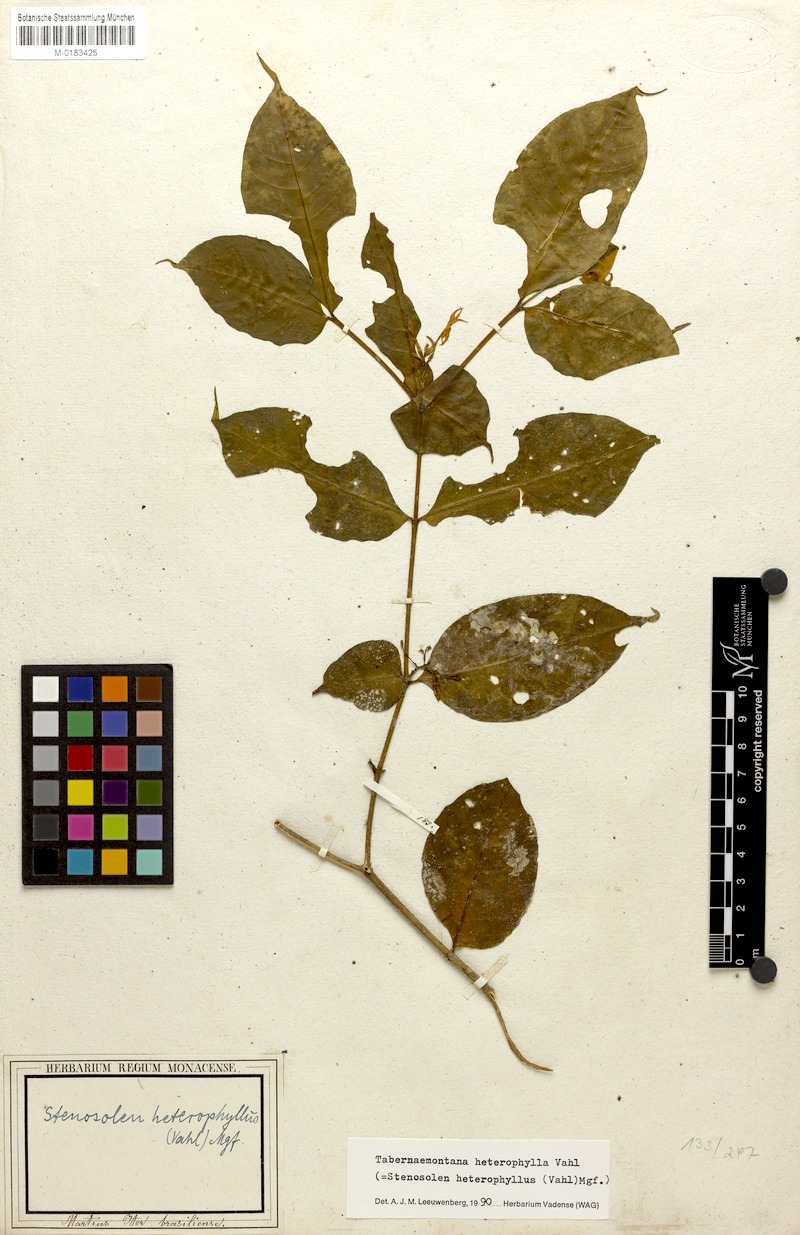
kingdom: Plantae
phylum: Tracheophyta
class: Magnoliopsida
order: Gentianales
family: Apocynaceae
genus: Tabernaemontana
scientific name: Tabernaemontana heterophylla
